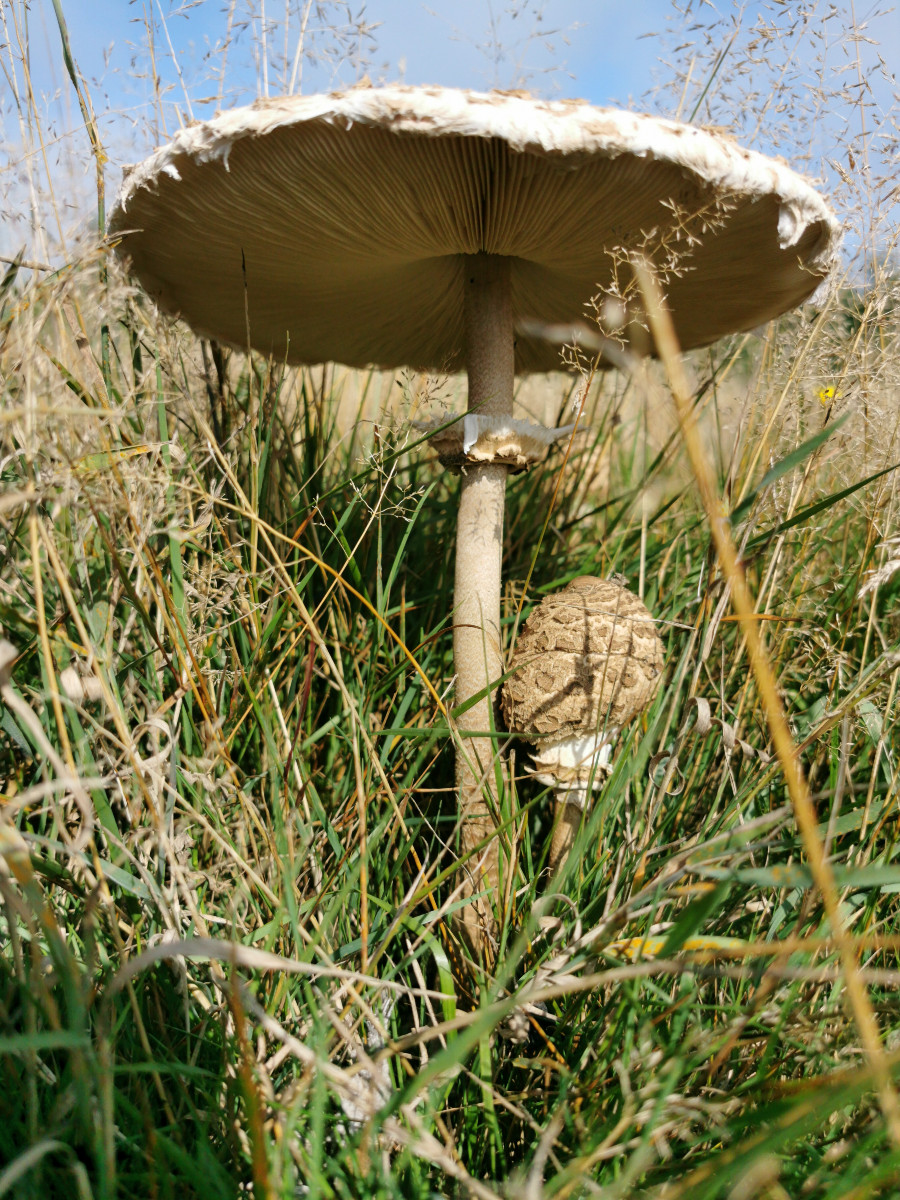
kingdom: Fungi
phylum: Basidiomycota
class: Agaricomycetes
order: Agaricales
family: Agaricaceae
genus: Macrolepiota
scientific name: Macrolepiota procera
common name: stor kæmpeparasolhat
